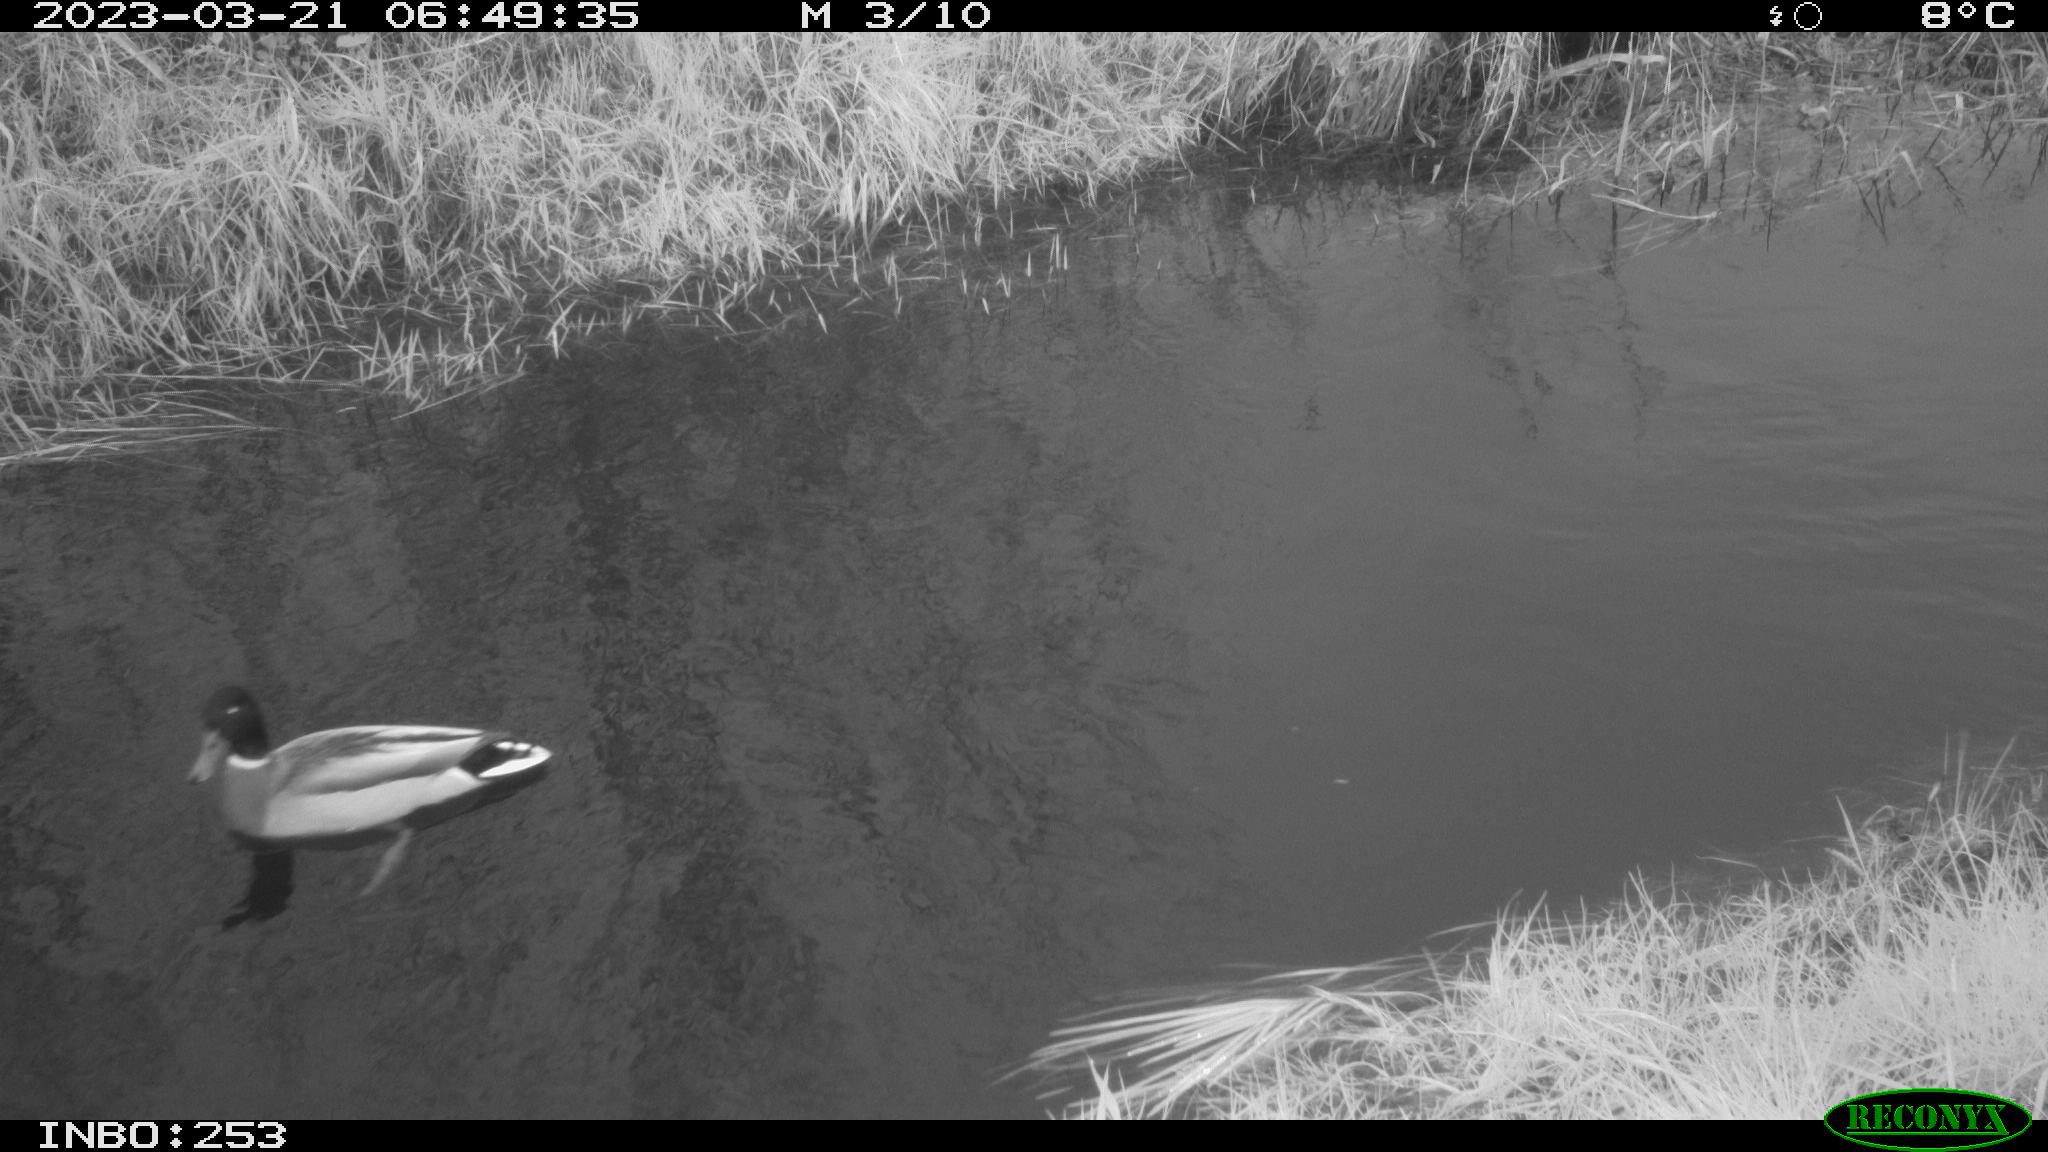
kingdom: Animalia
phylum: Chordata
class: Aves
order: Anseriformes
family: Anatidae
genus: Anas
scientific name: Anas
